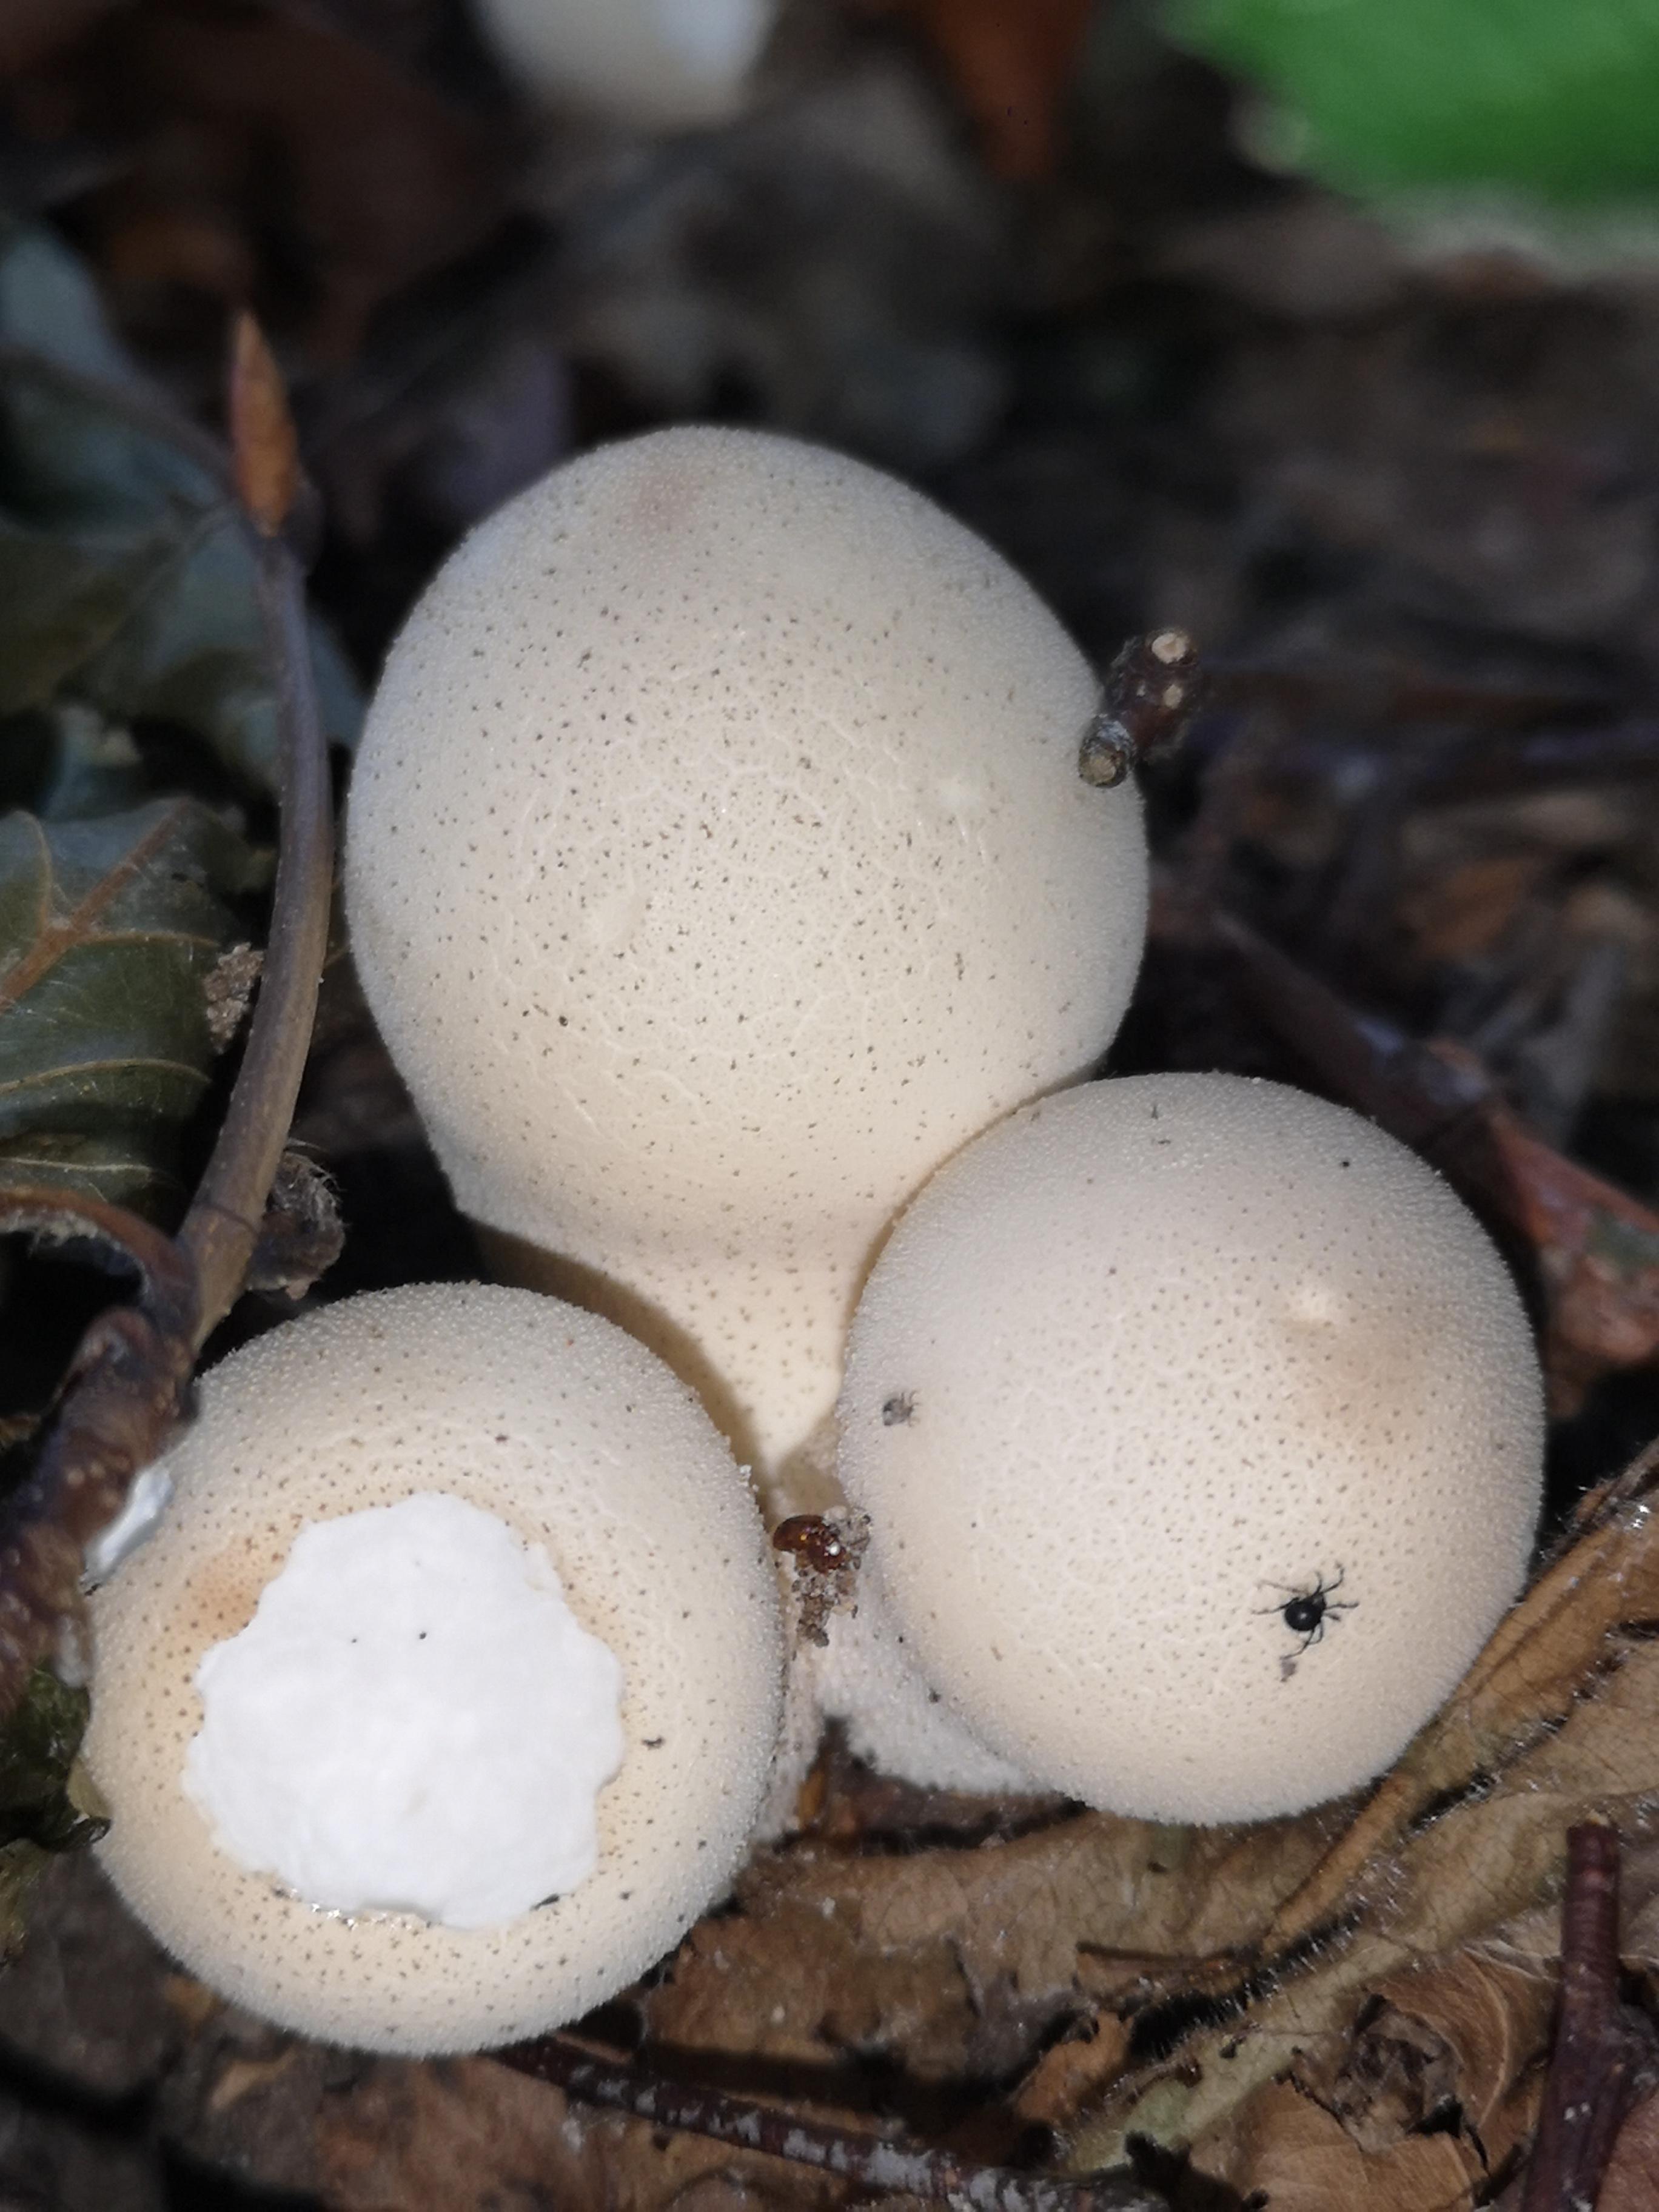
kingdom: Fungi
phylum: Basidiomycota
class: Agaricomycetes
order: Agaricales
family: Lycoperdaceae
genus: Apioperdon
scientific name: Apioperdon pyriforme
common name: pære-støvbold
